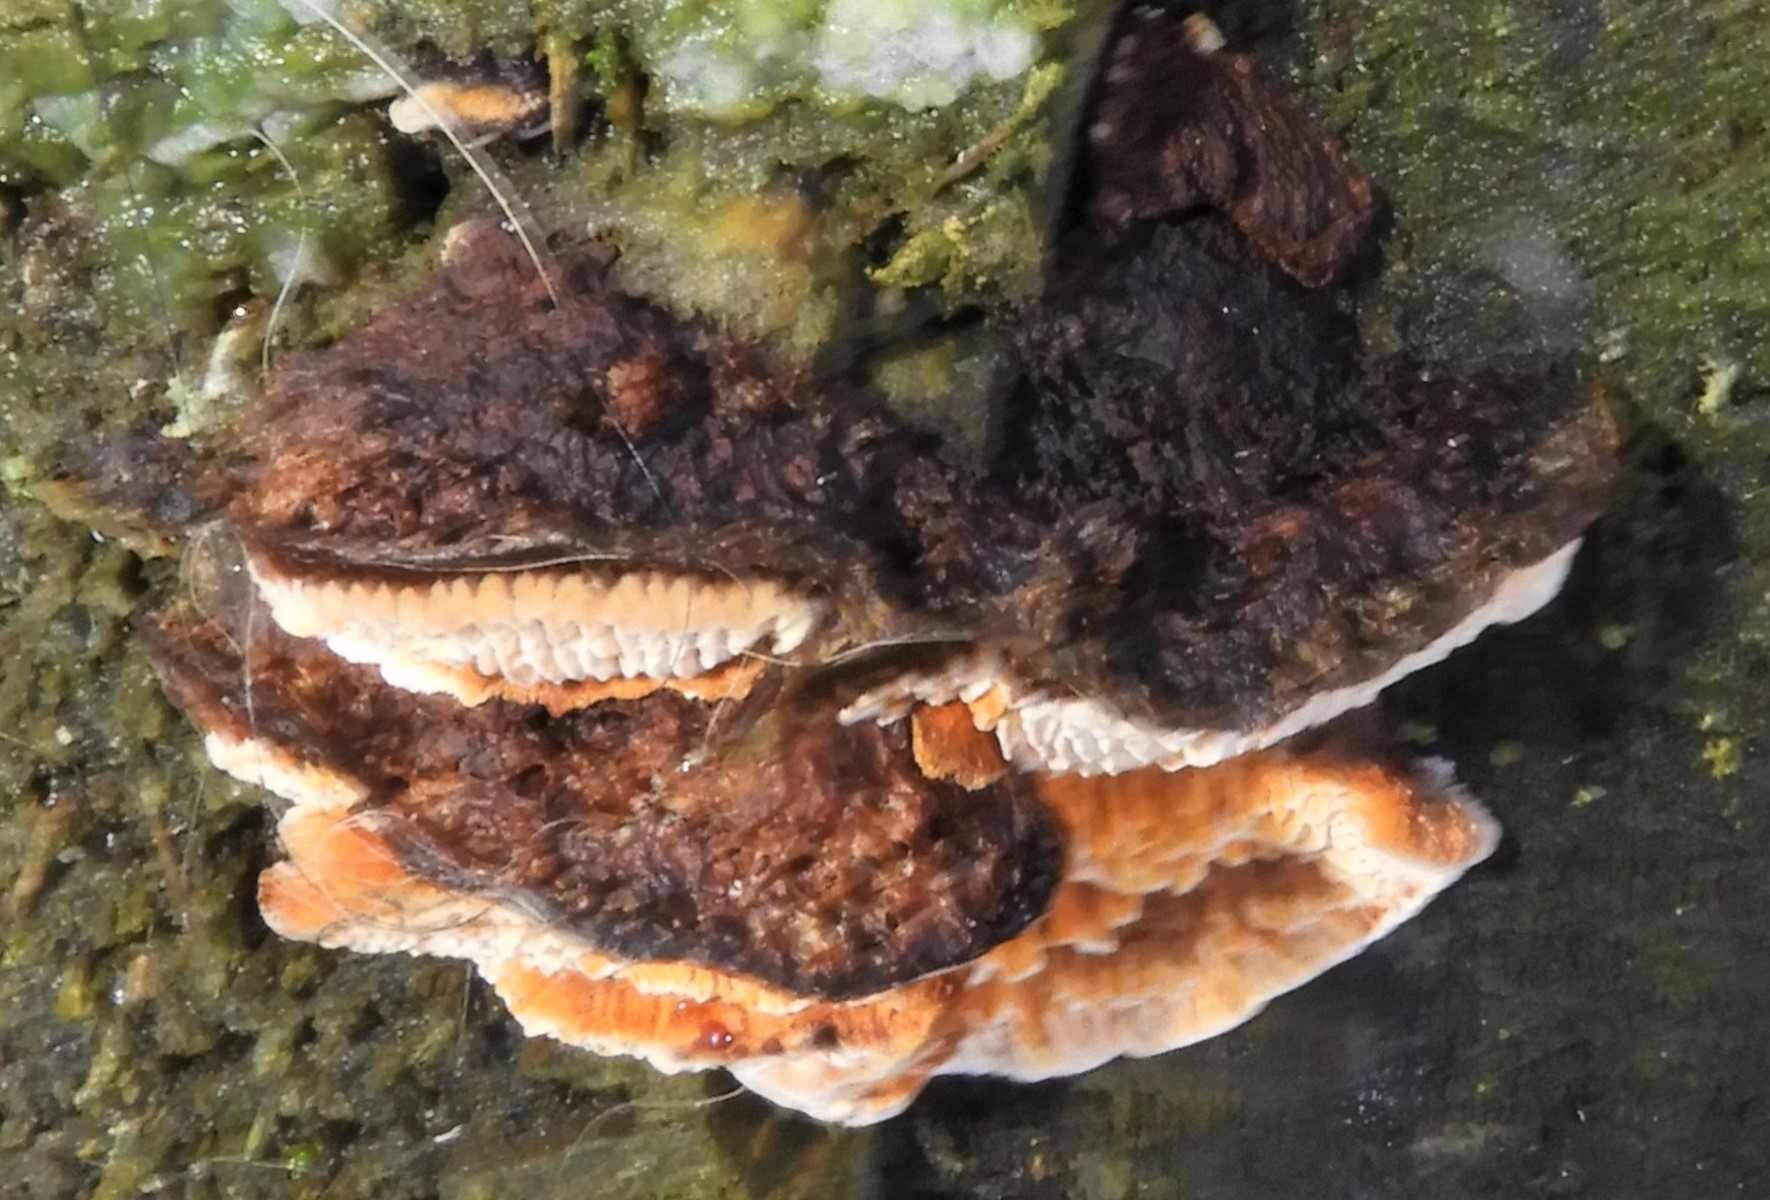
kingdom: Fungi
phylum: Basidiomycota
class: Agaricomycetes
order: Gloeophyllales
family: Gloeophyllaceae
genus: Gloeophyllum
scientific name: Gloeophyllum sepiarium
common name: fyrre-korkhat
